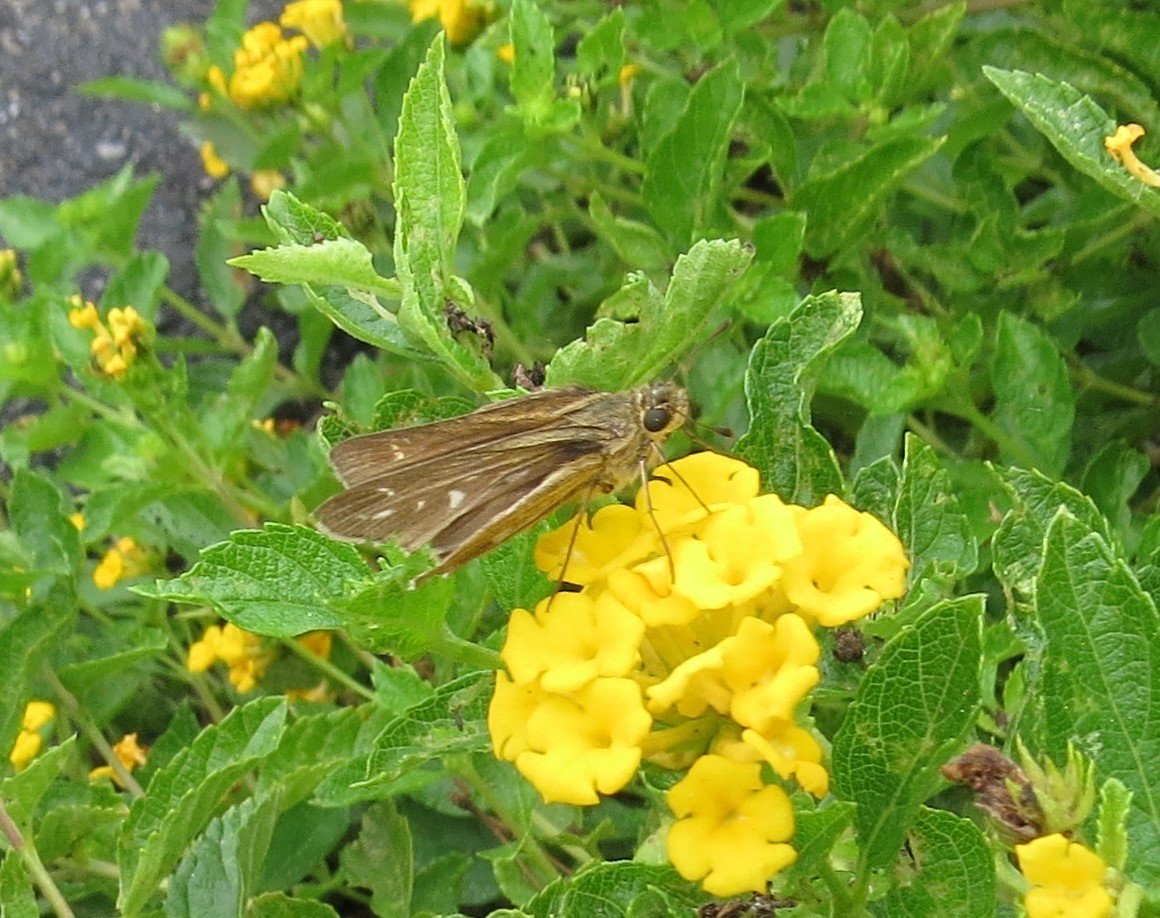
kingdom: Animalia
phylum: Arthropoda
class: Insecta
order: Lepidoptera
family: Hesperiidae
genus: Polites
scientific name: Polites vibex
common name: Whirlabout
